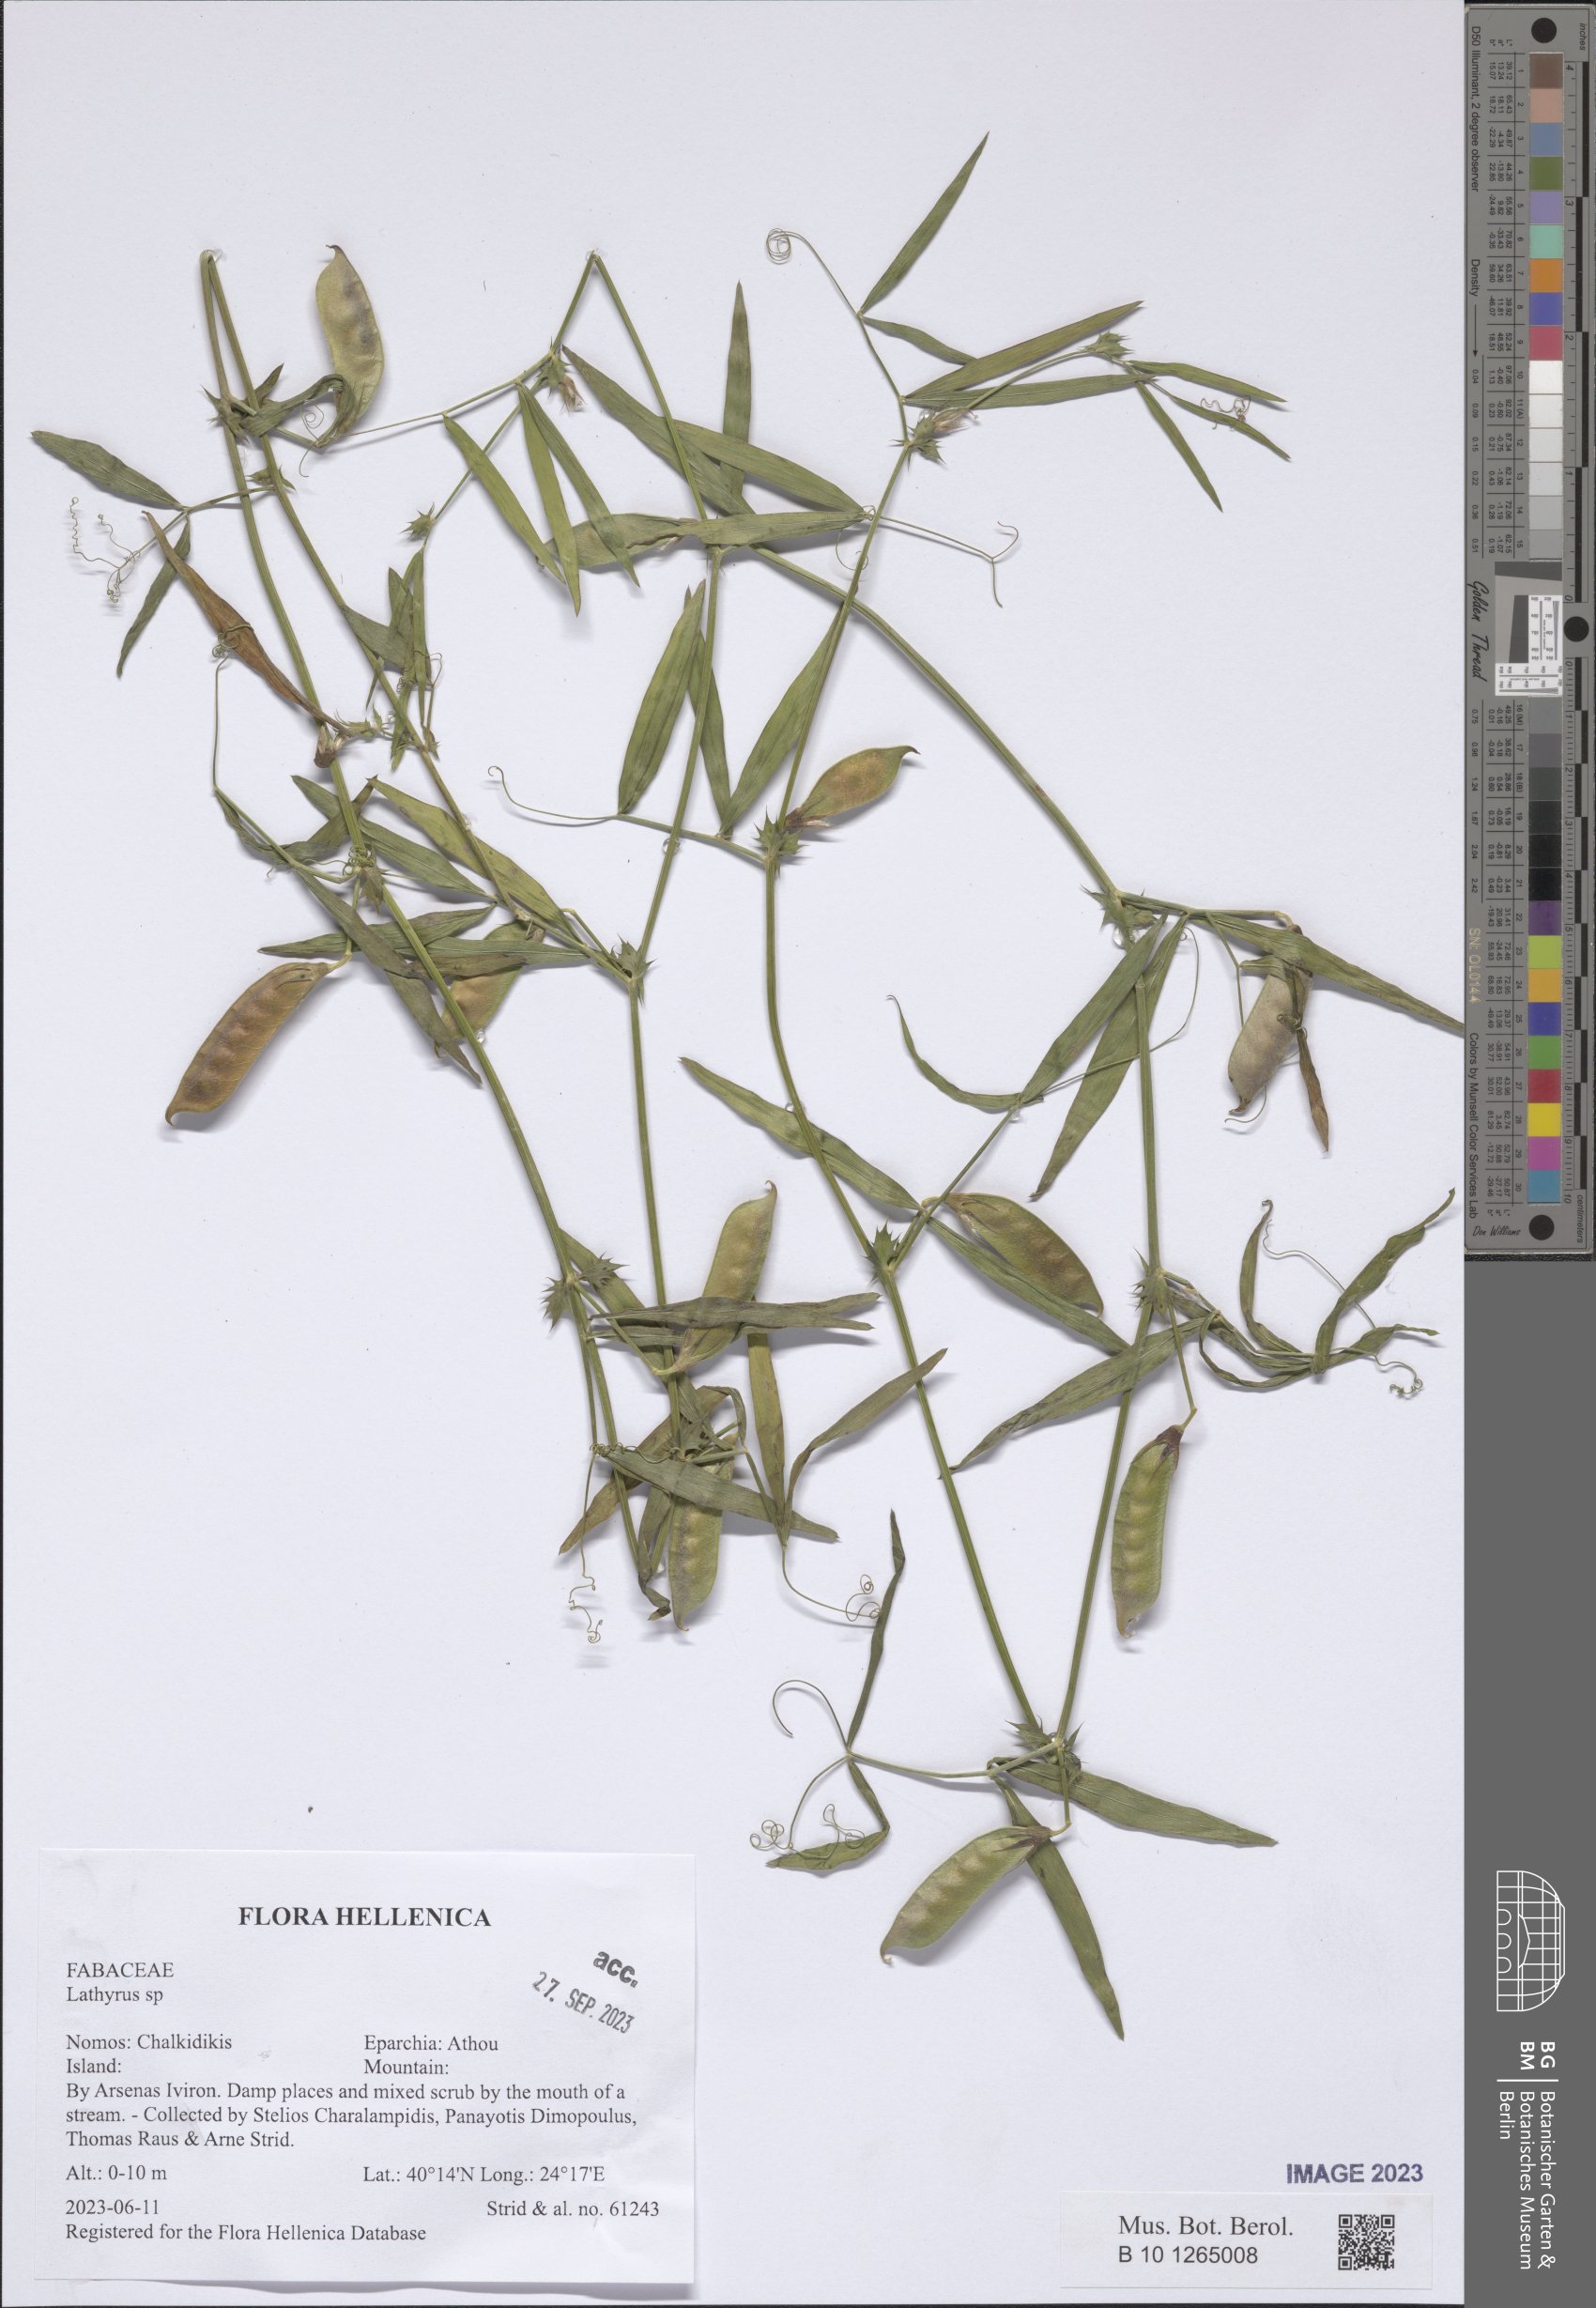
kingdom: Plantae
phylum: Tracheophyta
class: Magnoliopsida
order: Fabales
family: Fabaceae
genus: Lathyrus
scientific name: Lathyrus
